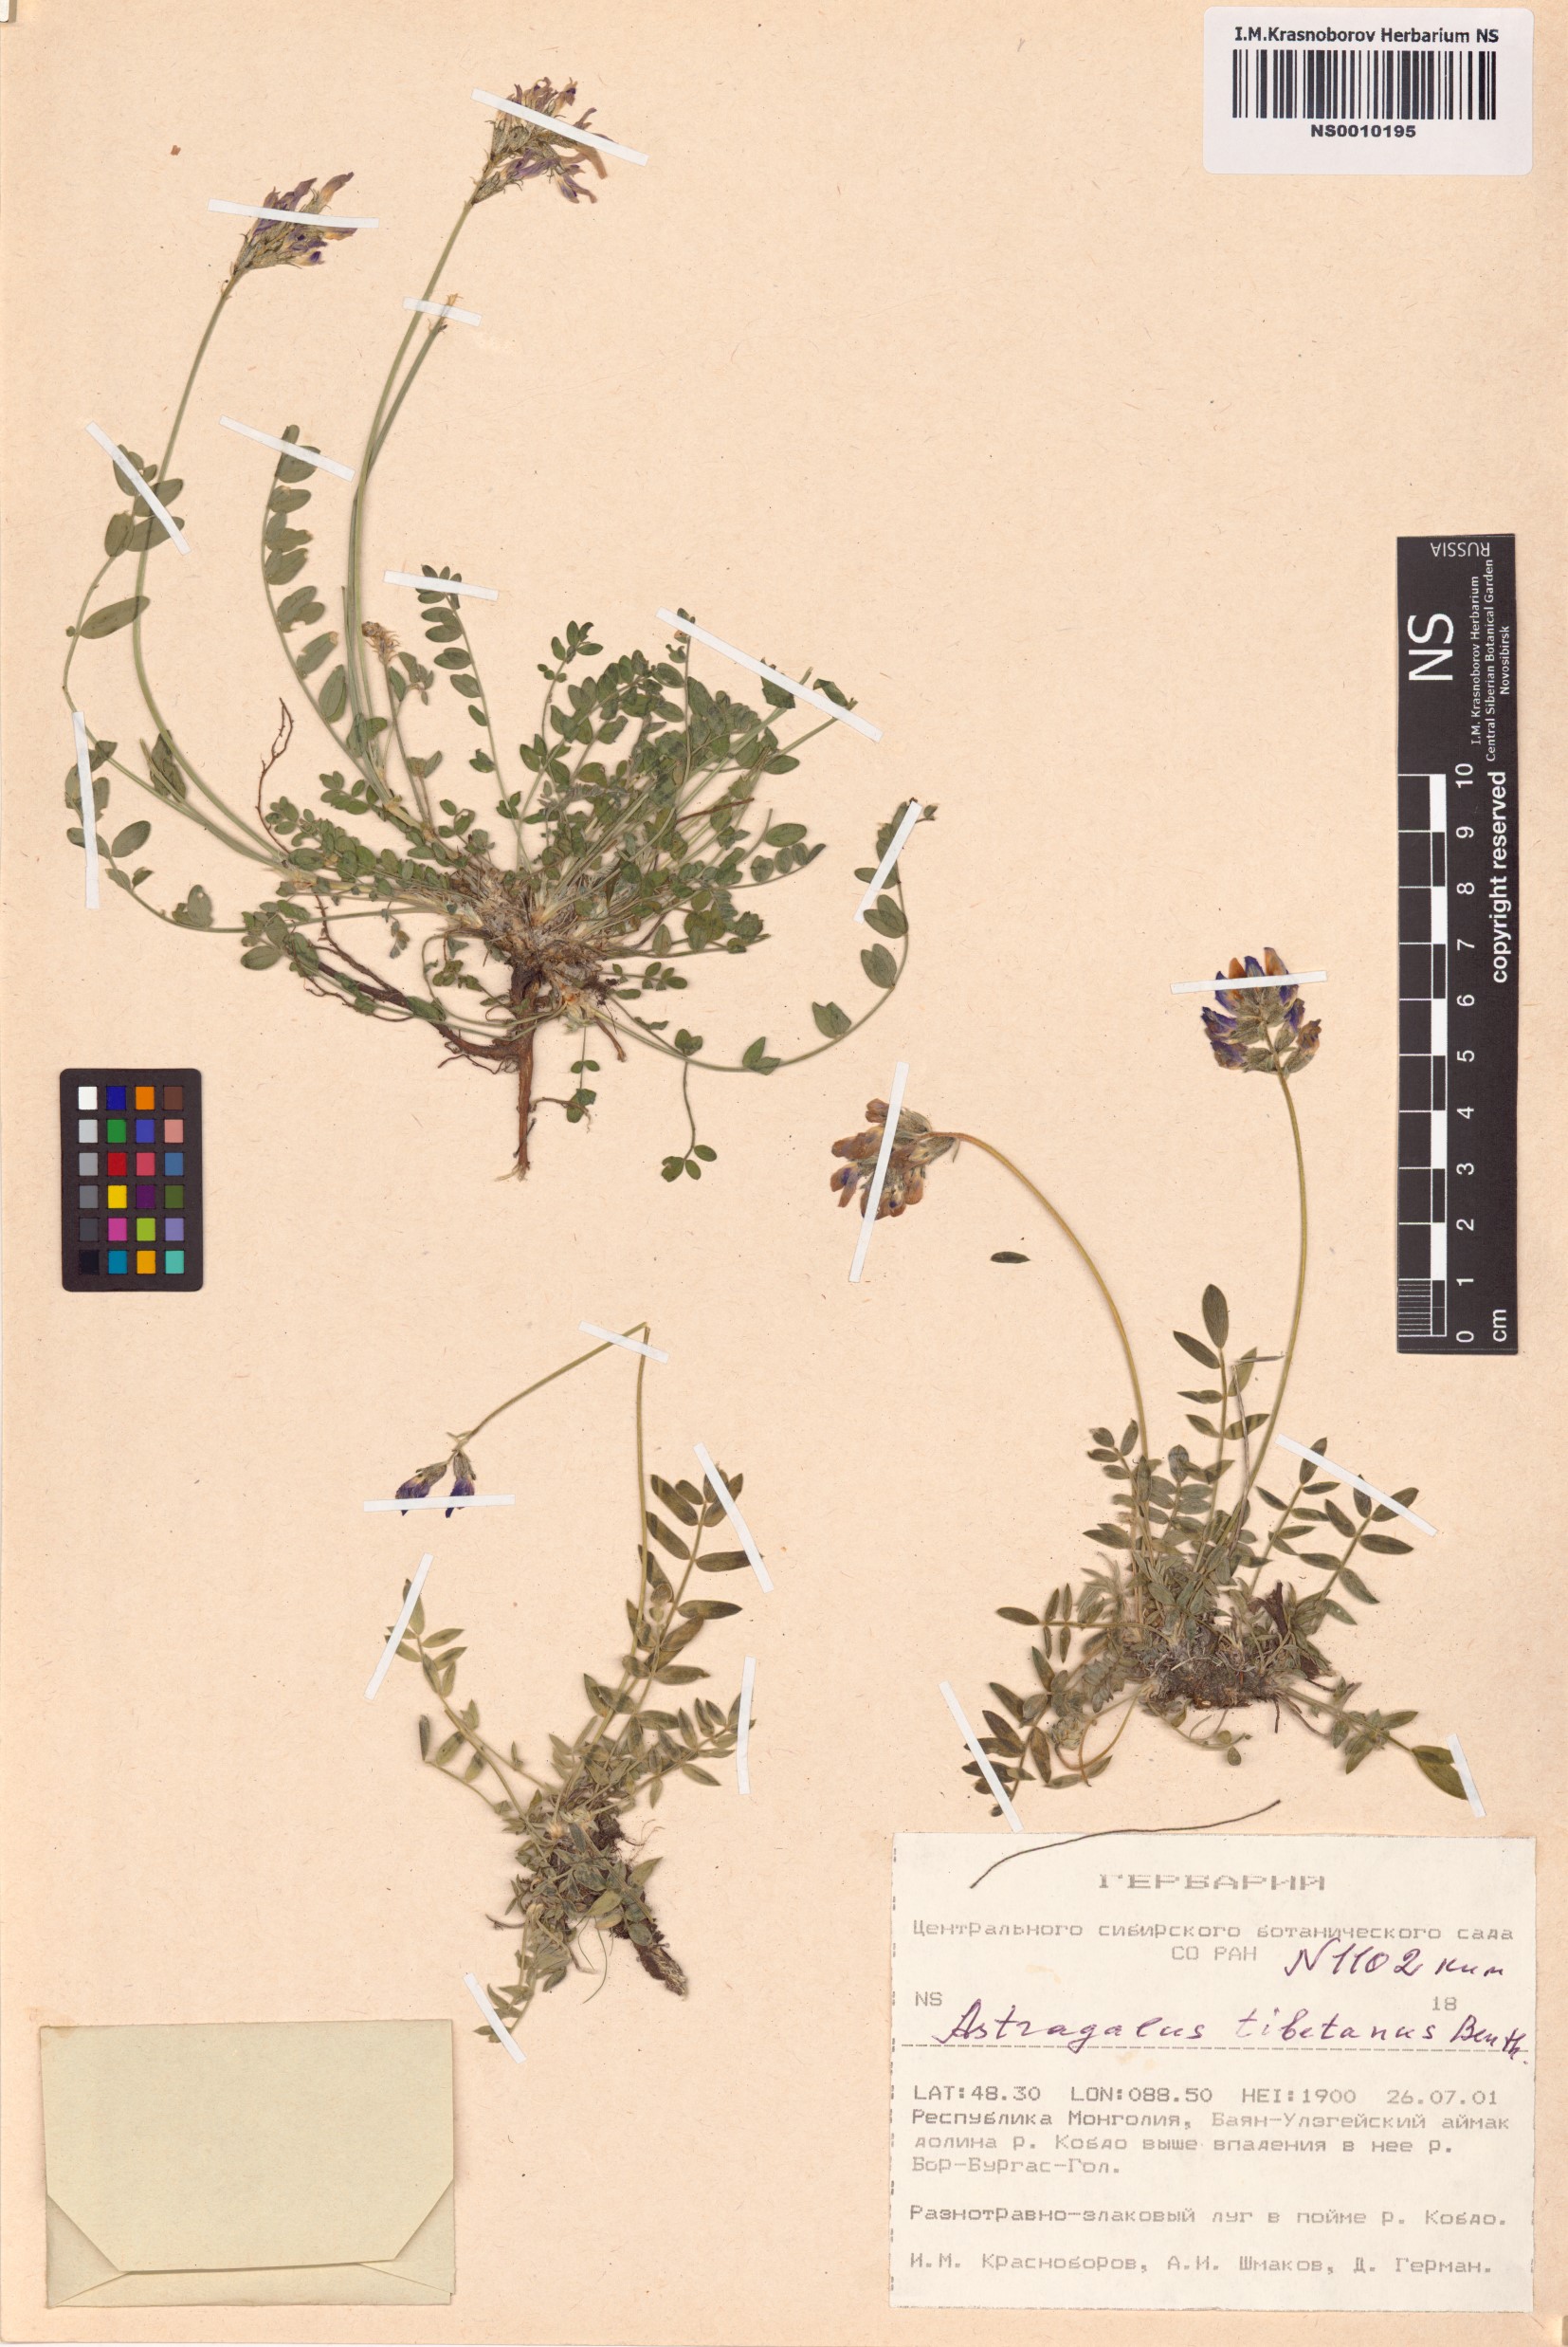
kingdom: Plantae
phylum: Tracheophyta
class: Magnoliopsida
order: Fabales
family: Fabaceae
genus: Astragalus
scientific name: Astragalus tibetanus
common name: Tibet milkvetch
